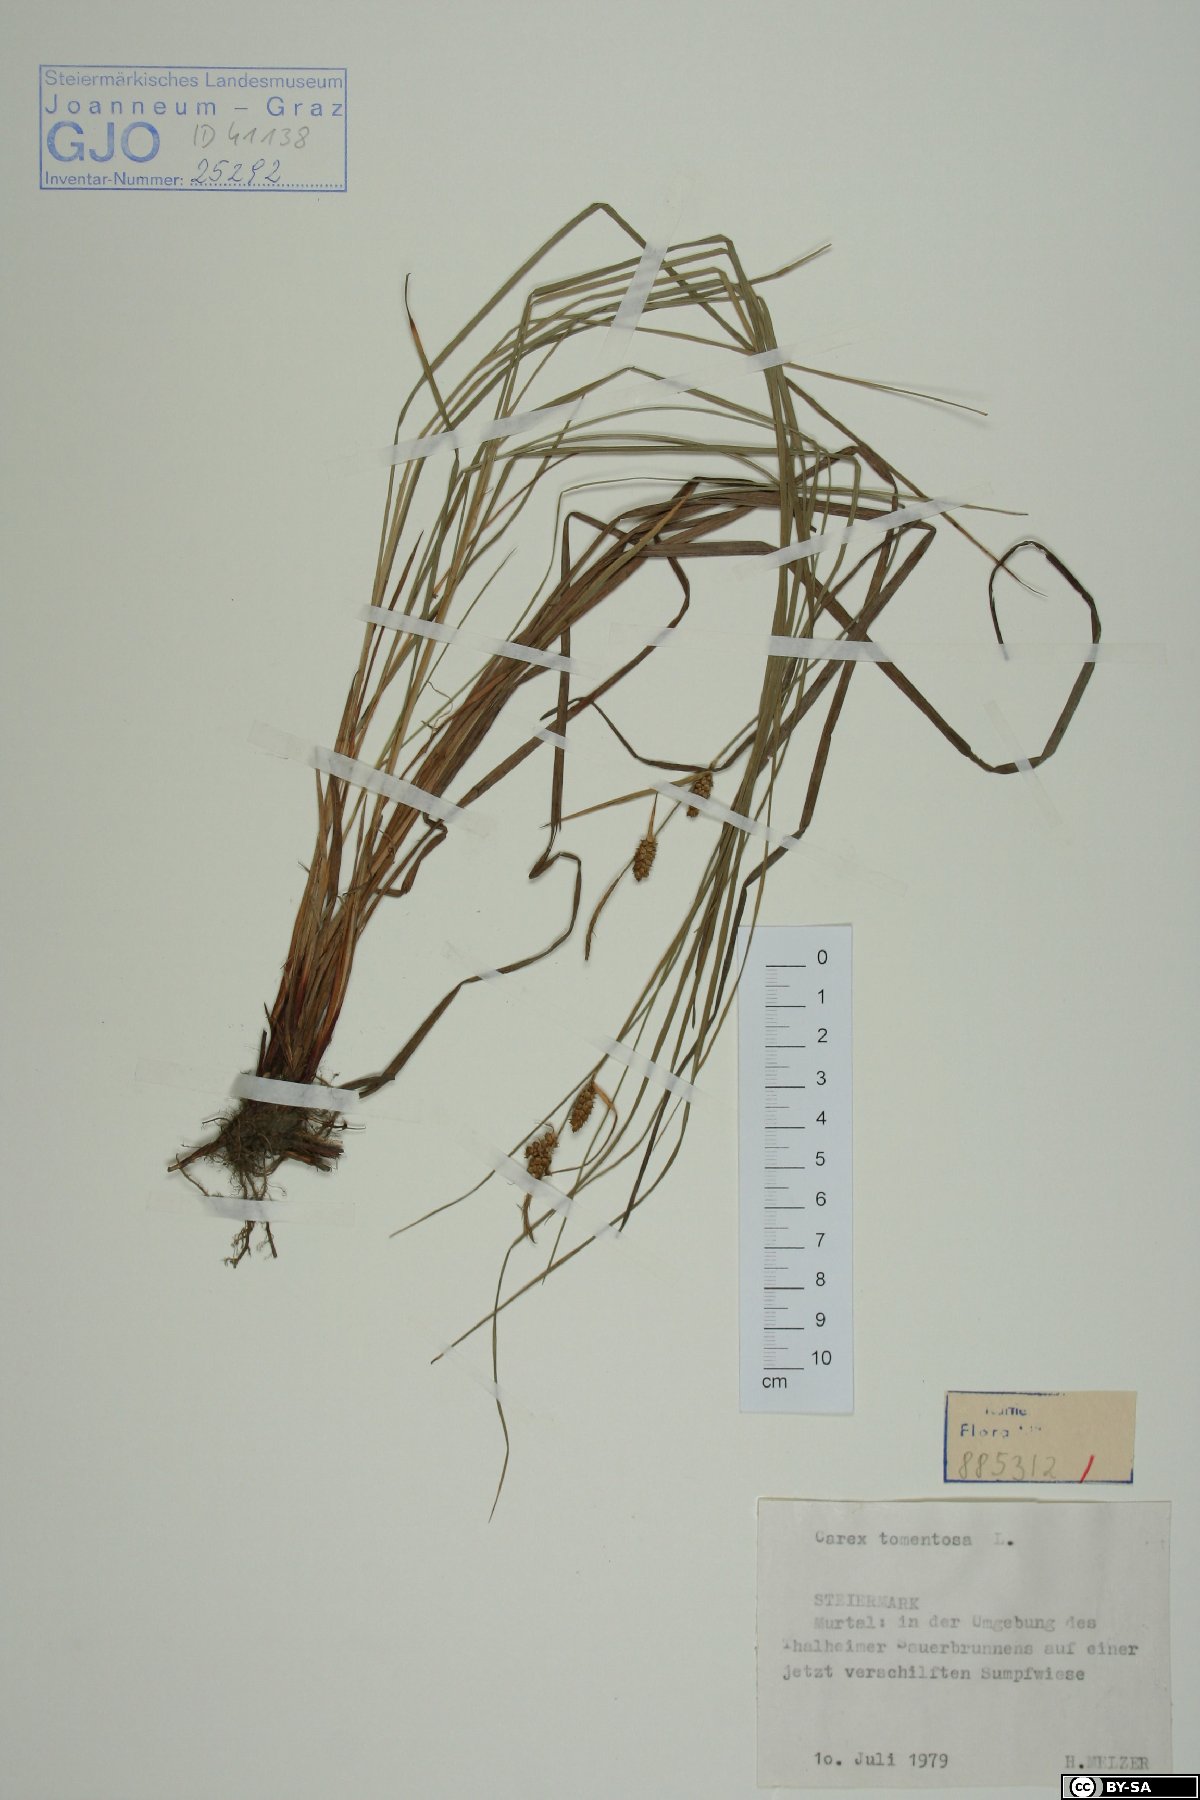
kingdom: Plantae
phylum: Tracheophyta
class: Liliopsida
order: Poales
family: Cyperaceae
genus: Carex
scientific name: Carex tomentosa
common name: Downy-fruited sedge
